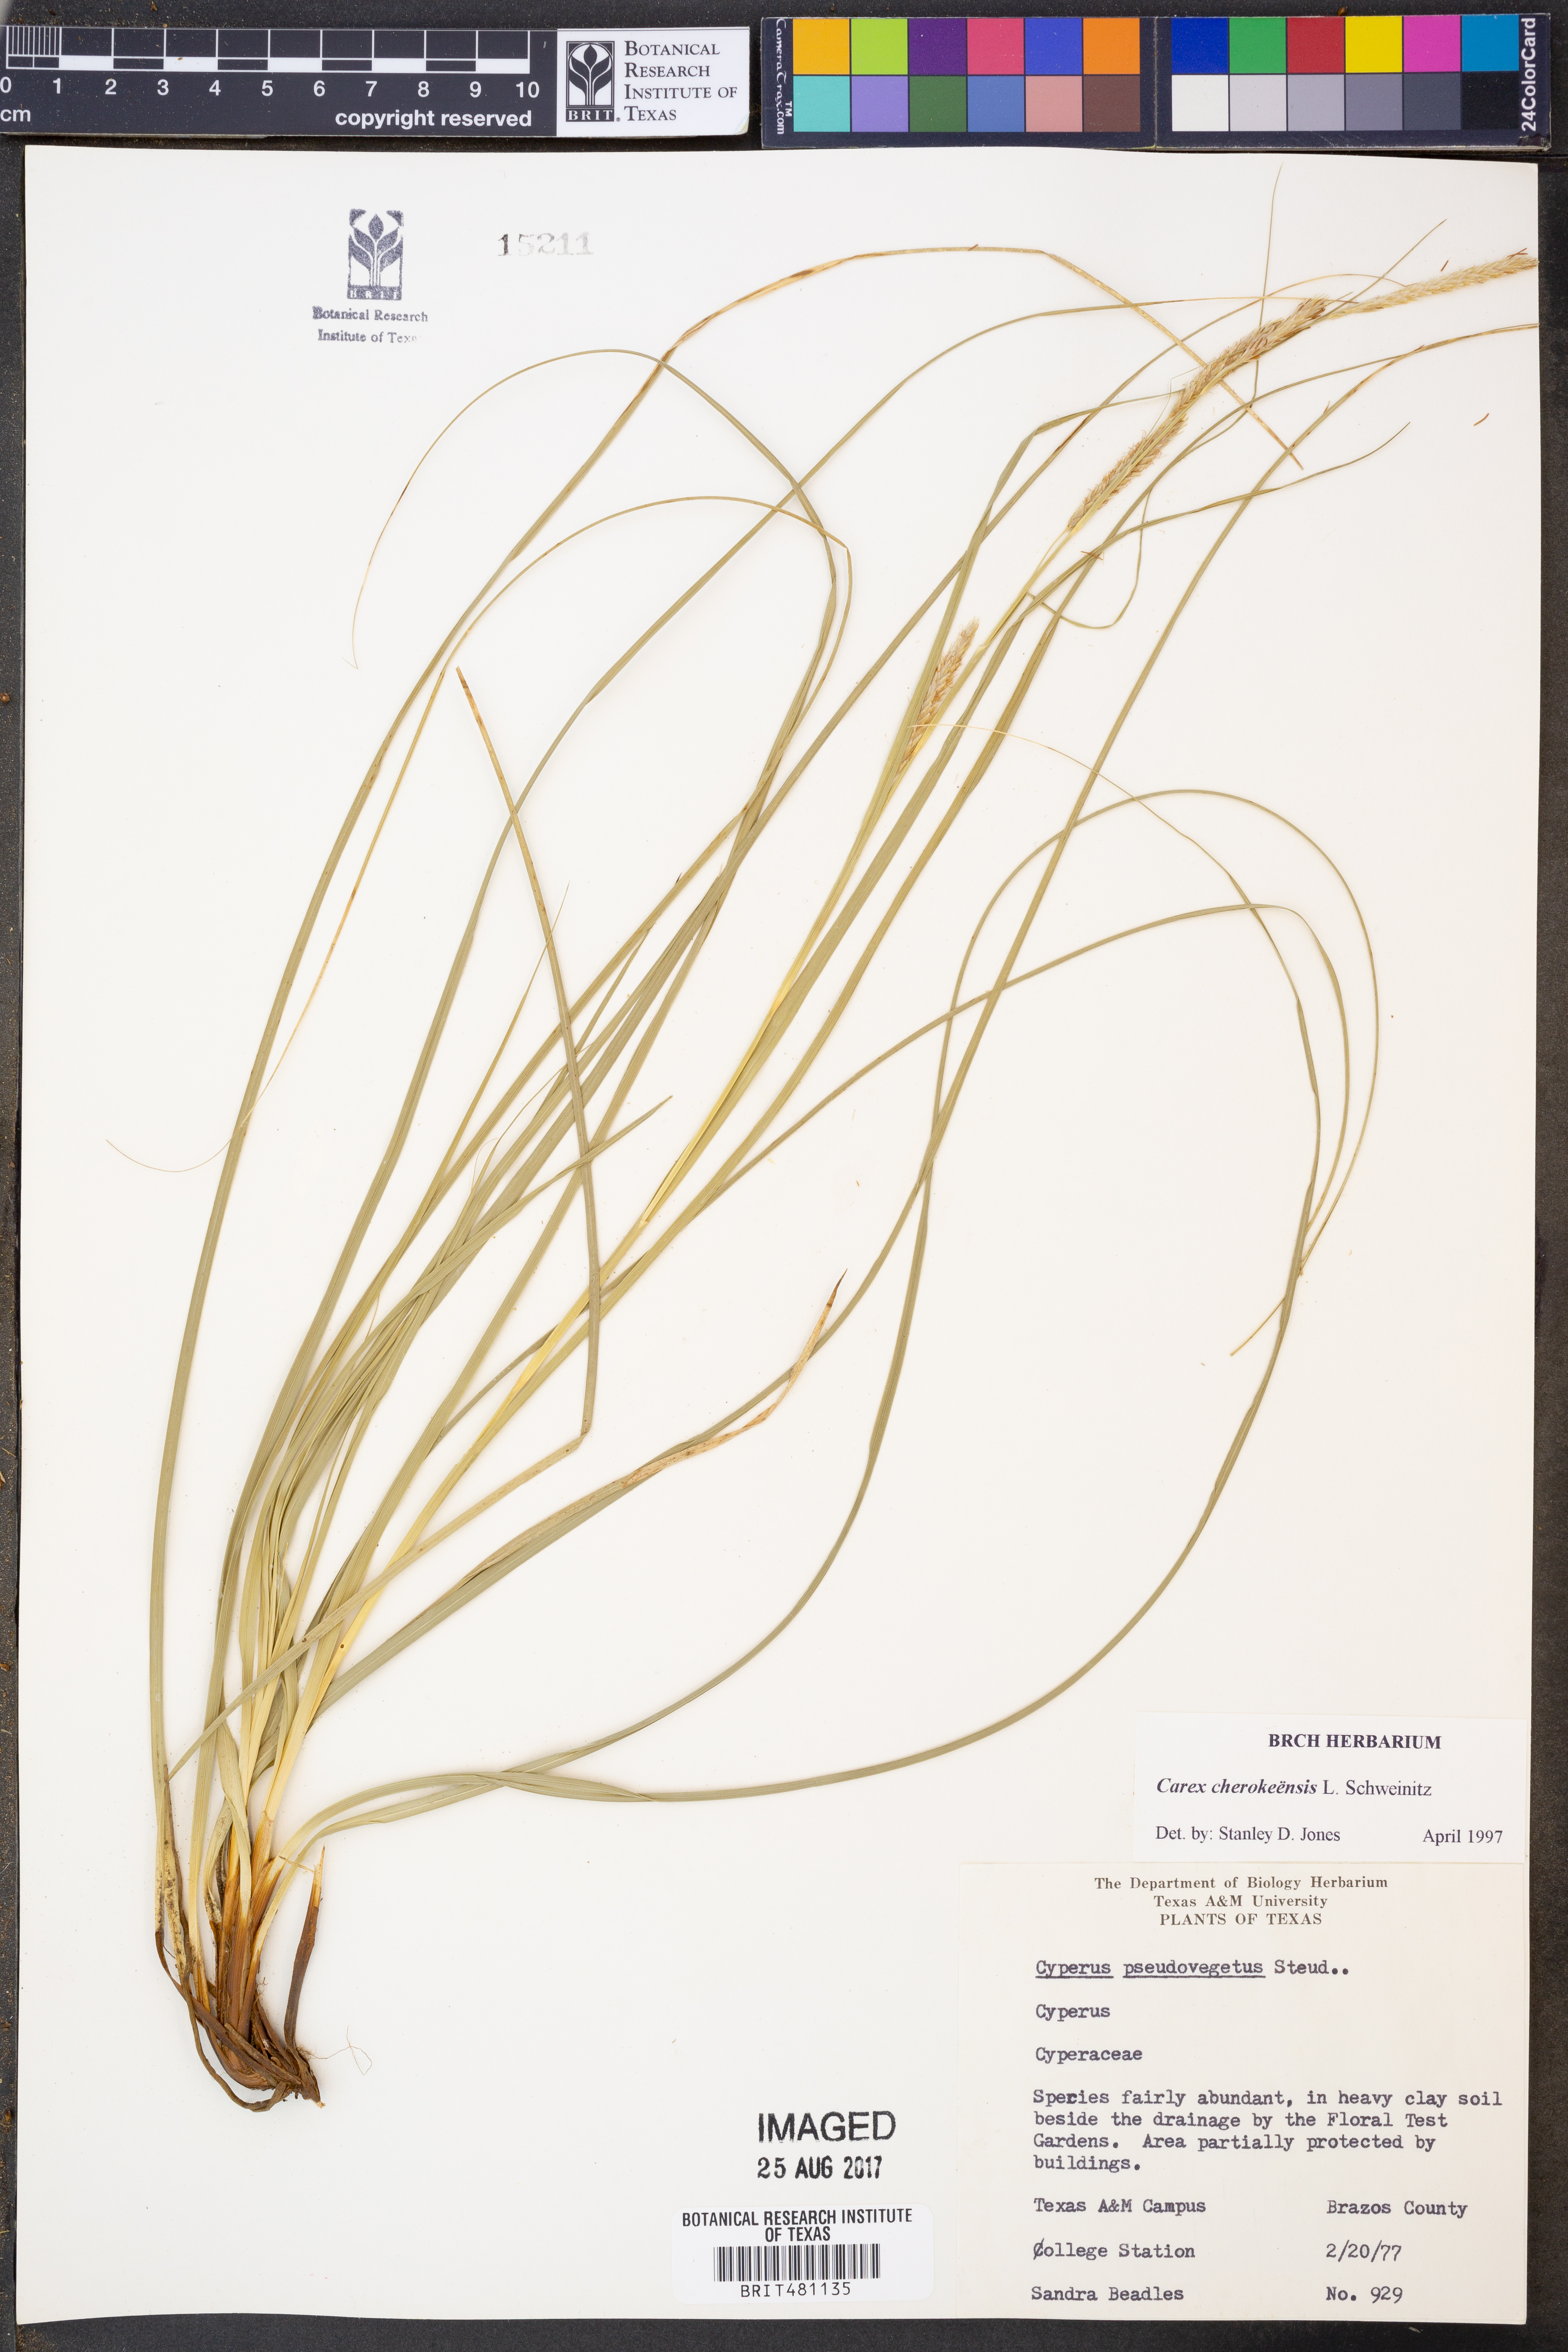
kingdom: Plantae
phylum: Tracheophyta
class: Liliopsida
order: Poales
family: Cyperaceae
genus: Carex
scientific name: Carex cherokeensis
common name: Cherokee sedge
